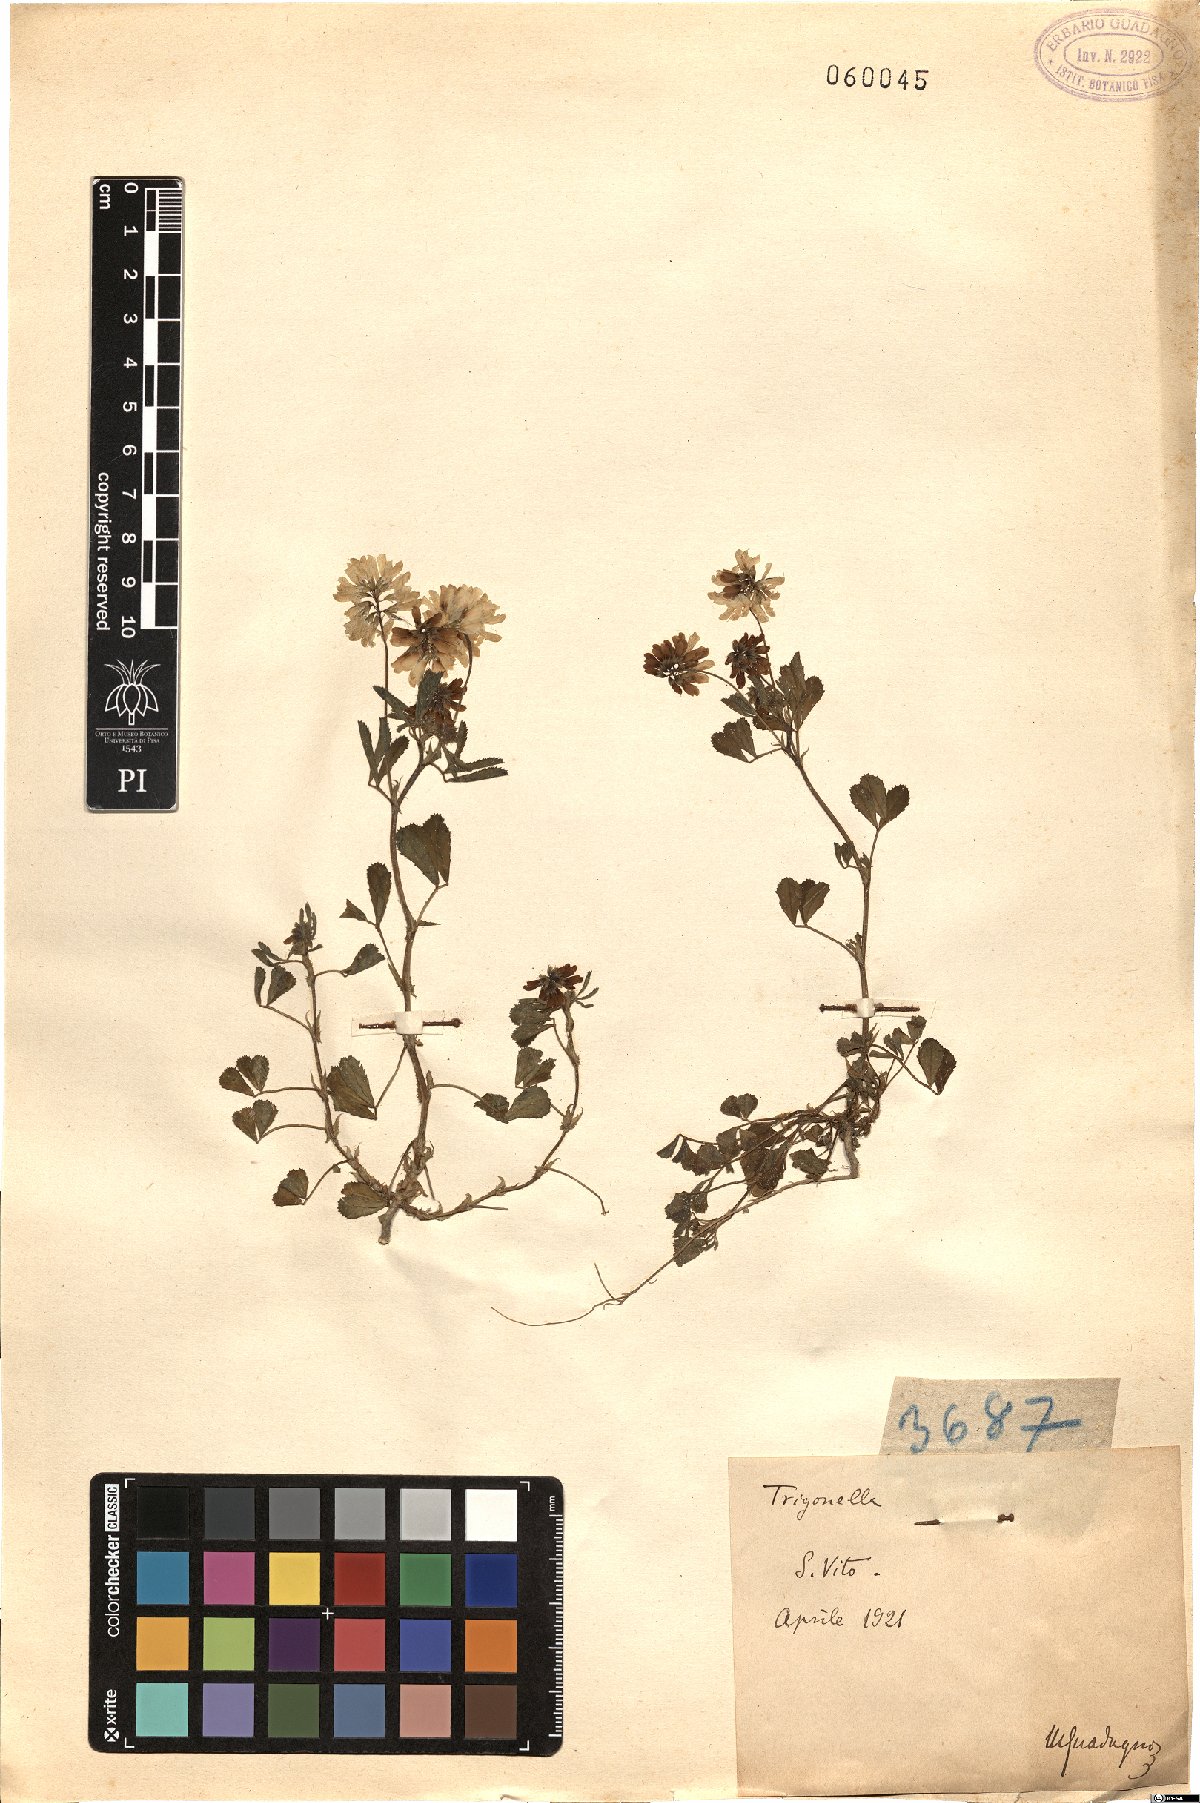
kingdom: Plantae
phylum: Tracheophyta
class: Magnoliopsida
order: Fabales
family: Fabaceae
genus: Trigonella
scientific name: Trigonella
